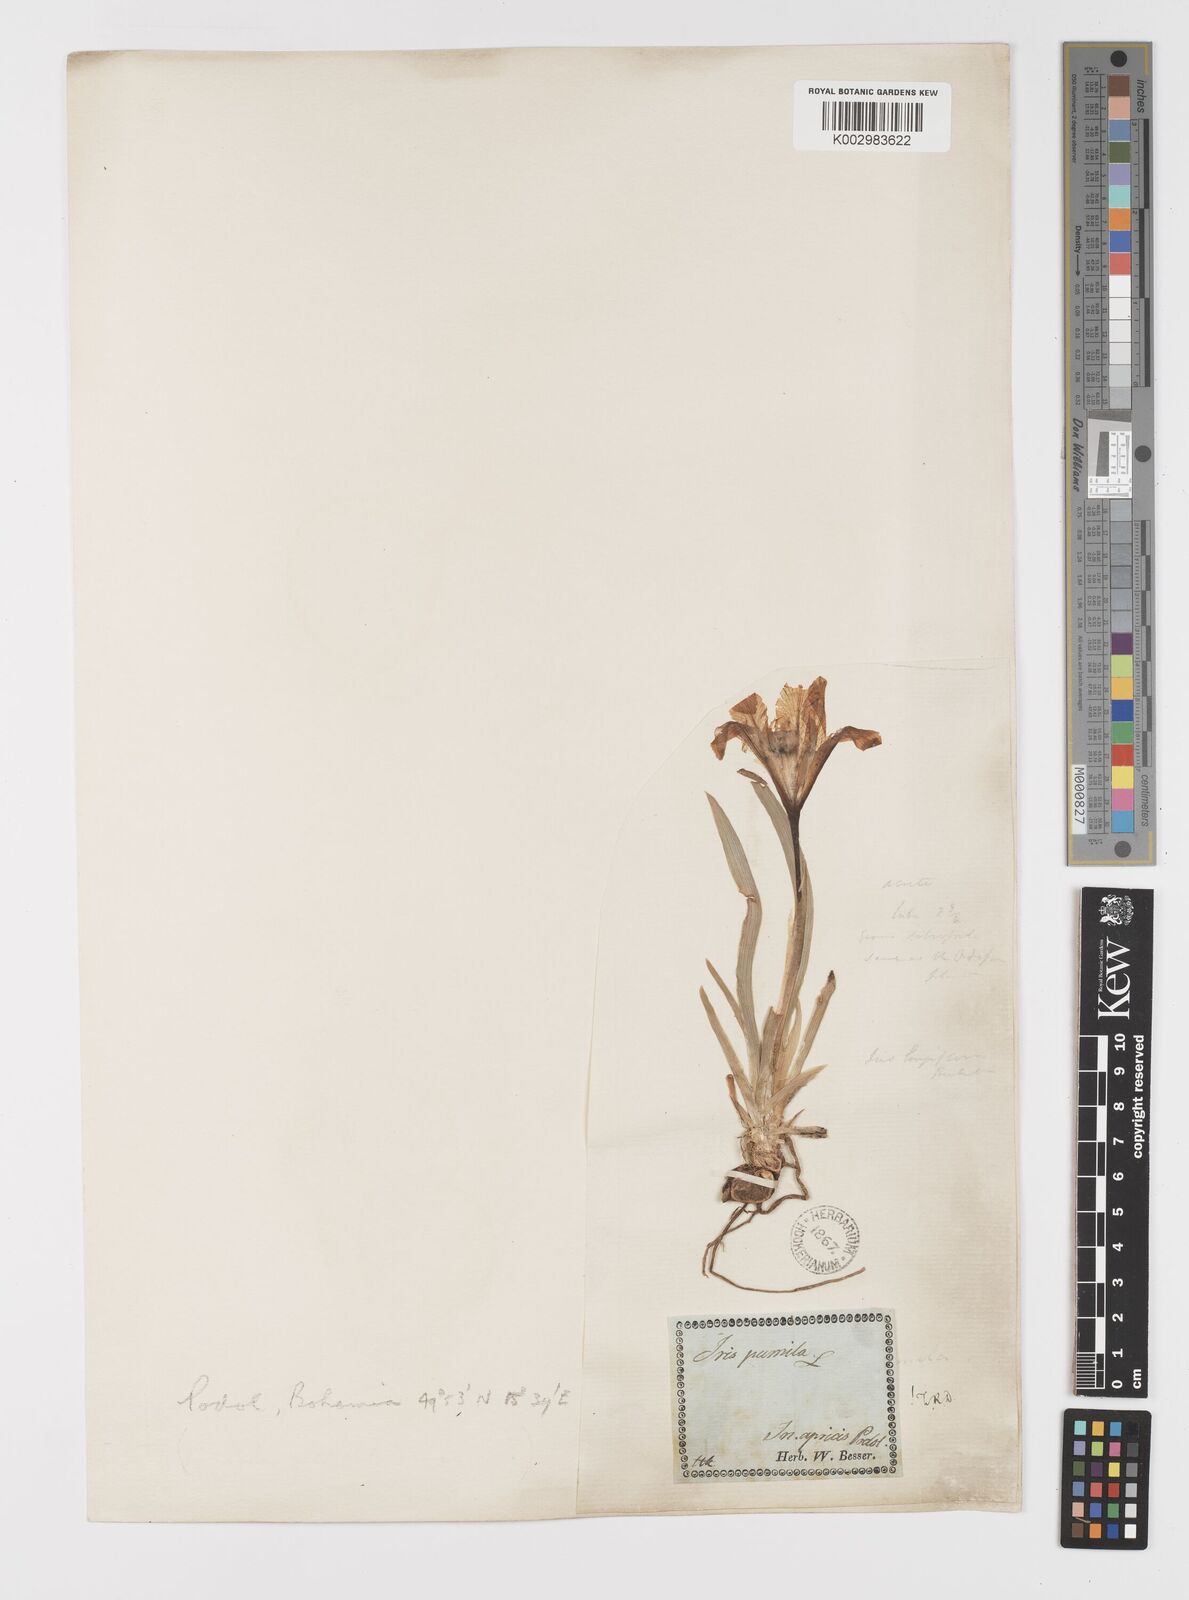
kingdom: Plantae
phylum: Tracheophyta
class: Liliopsida
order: Asparagales
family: Iridaceae
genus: Iris
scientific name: Iris pumila
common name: Dwarf iris
